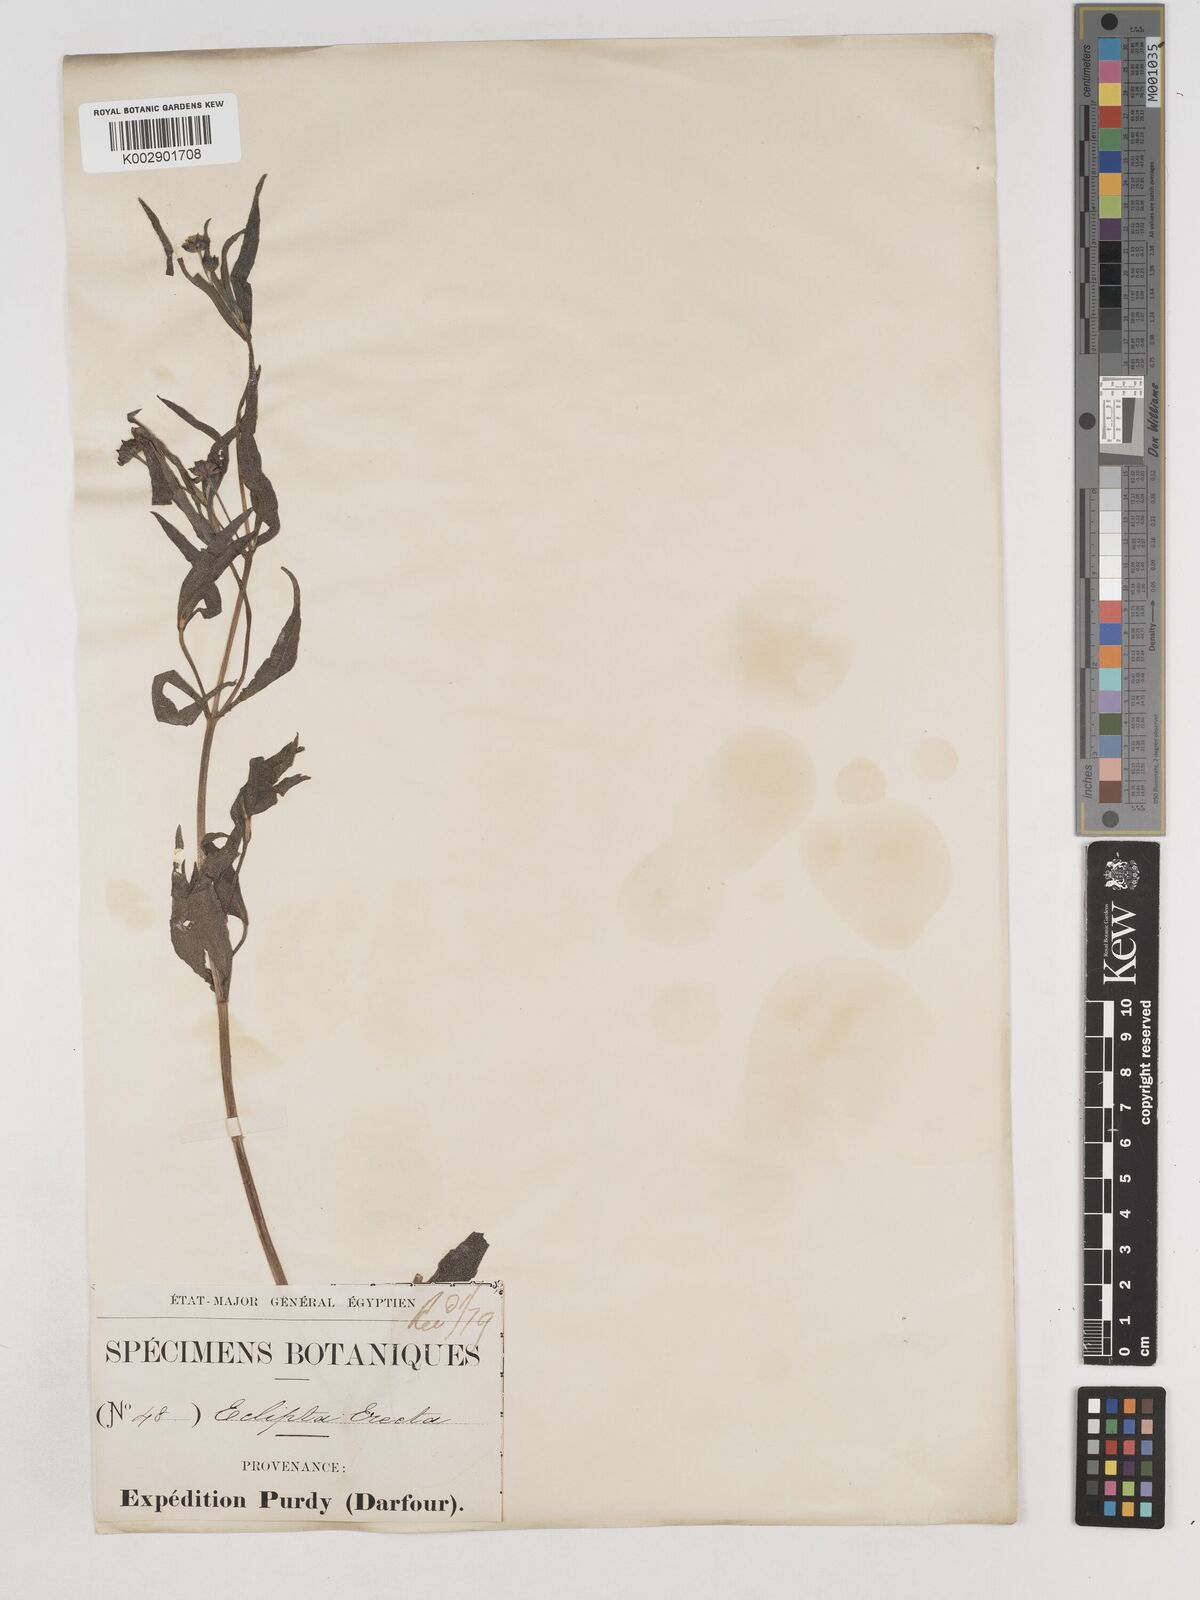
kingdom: Plantae
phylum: Tracheophyta
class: Magnoliopsida
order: Asterales
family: Asteraceae
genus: Eclipta
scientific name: Eclipta alba
